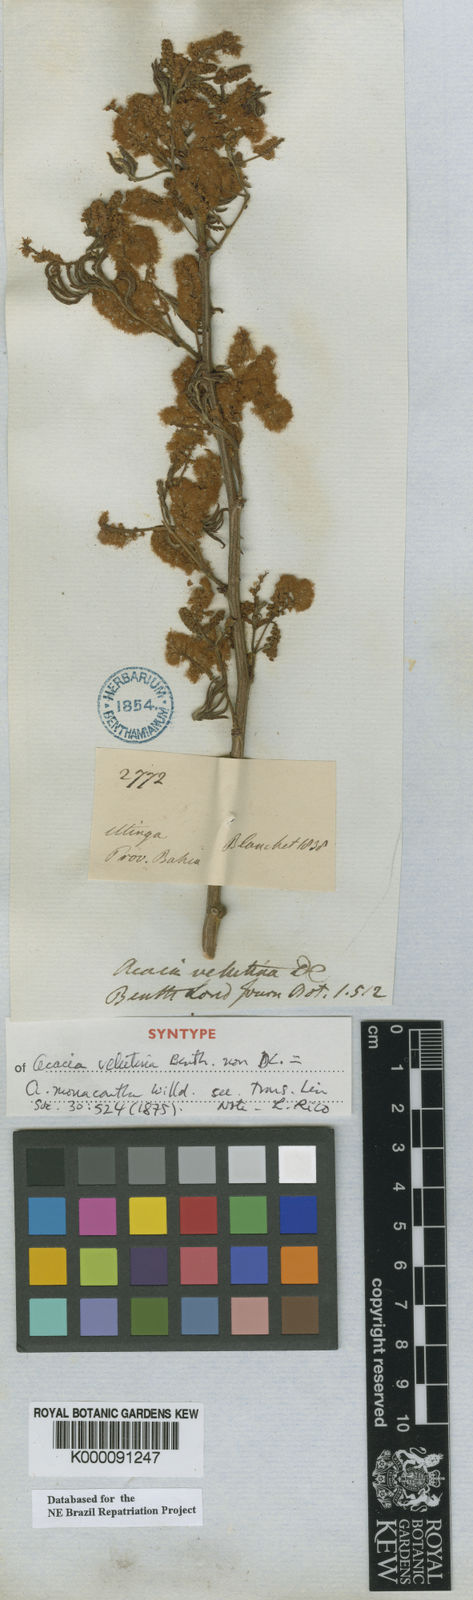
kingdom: Plantae
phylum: Tracheophyta
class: Magnoliopsida
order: Fabales
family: Fabaceae
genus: Senegalia
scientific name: Senegalia monacantha
